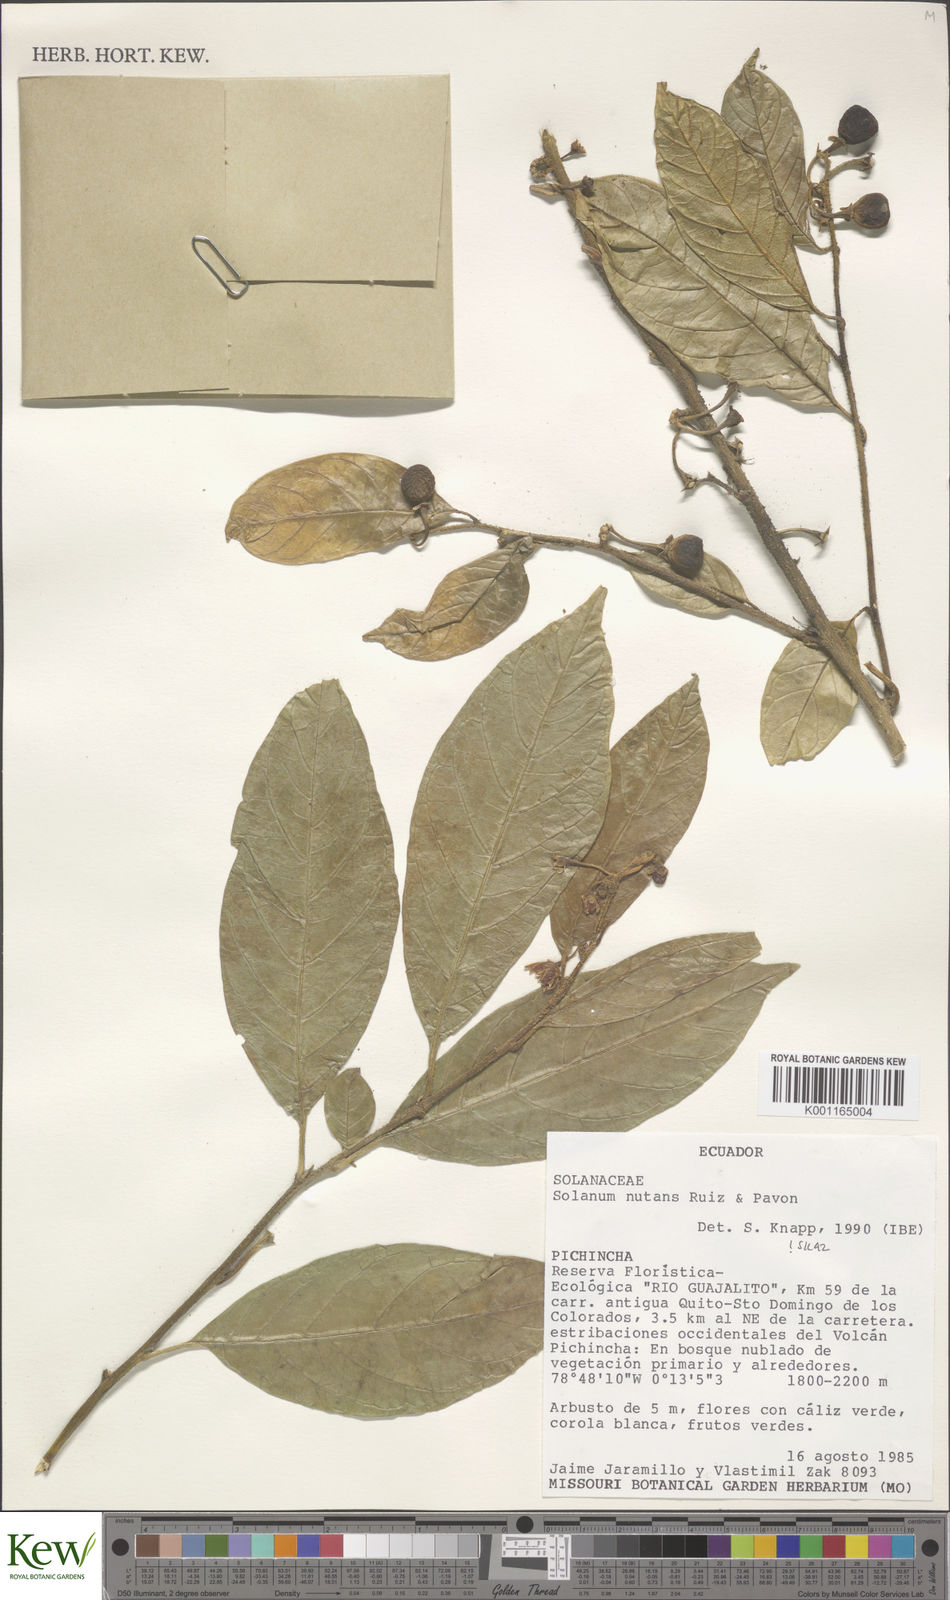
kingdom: Plantae
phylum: Tracheophyta
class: Magnoliopsida
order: Solanales
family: Solanaceae
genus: Solanum
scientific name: Solanum nutans
